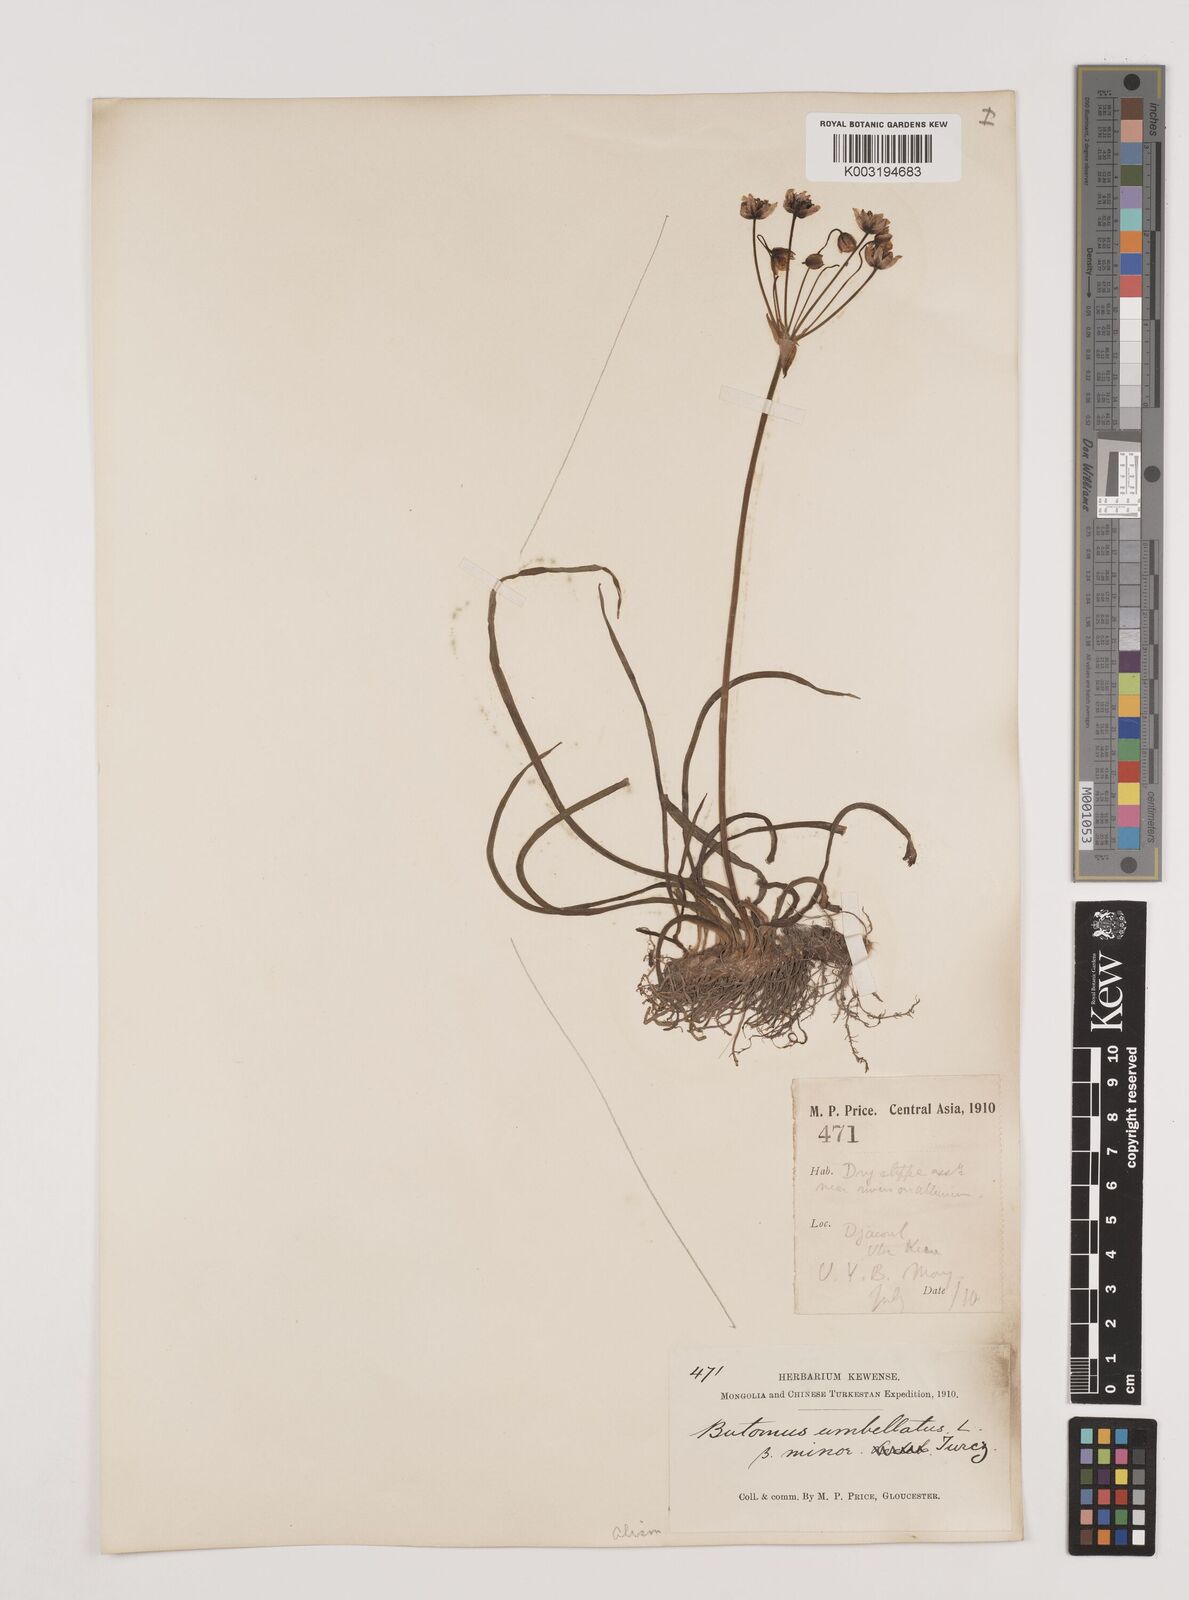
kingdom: Plantae
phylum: Tracheophyta
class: Liliopsida
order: Alismatales
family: Butomaceae
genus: Butomus
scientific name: Butomus umbellatus
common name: Flowering-rush
